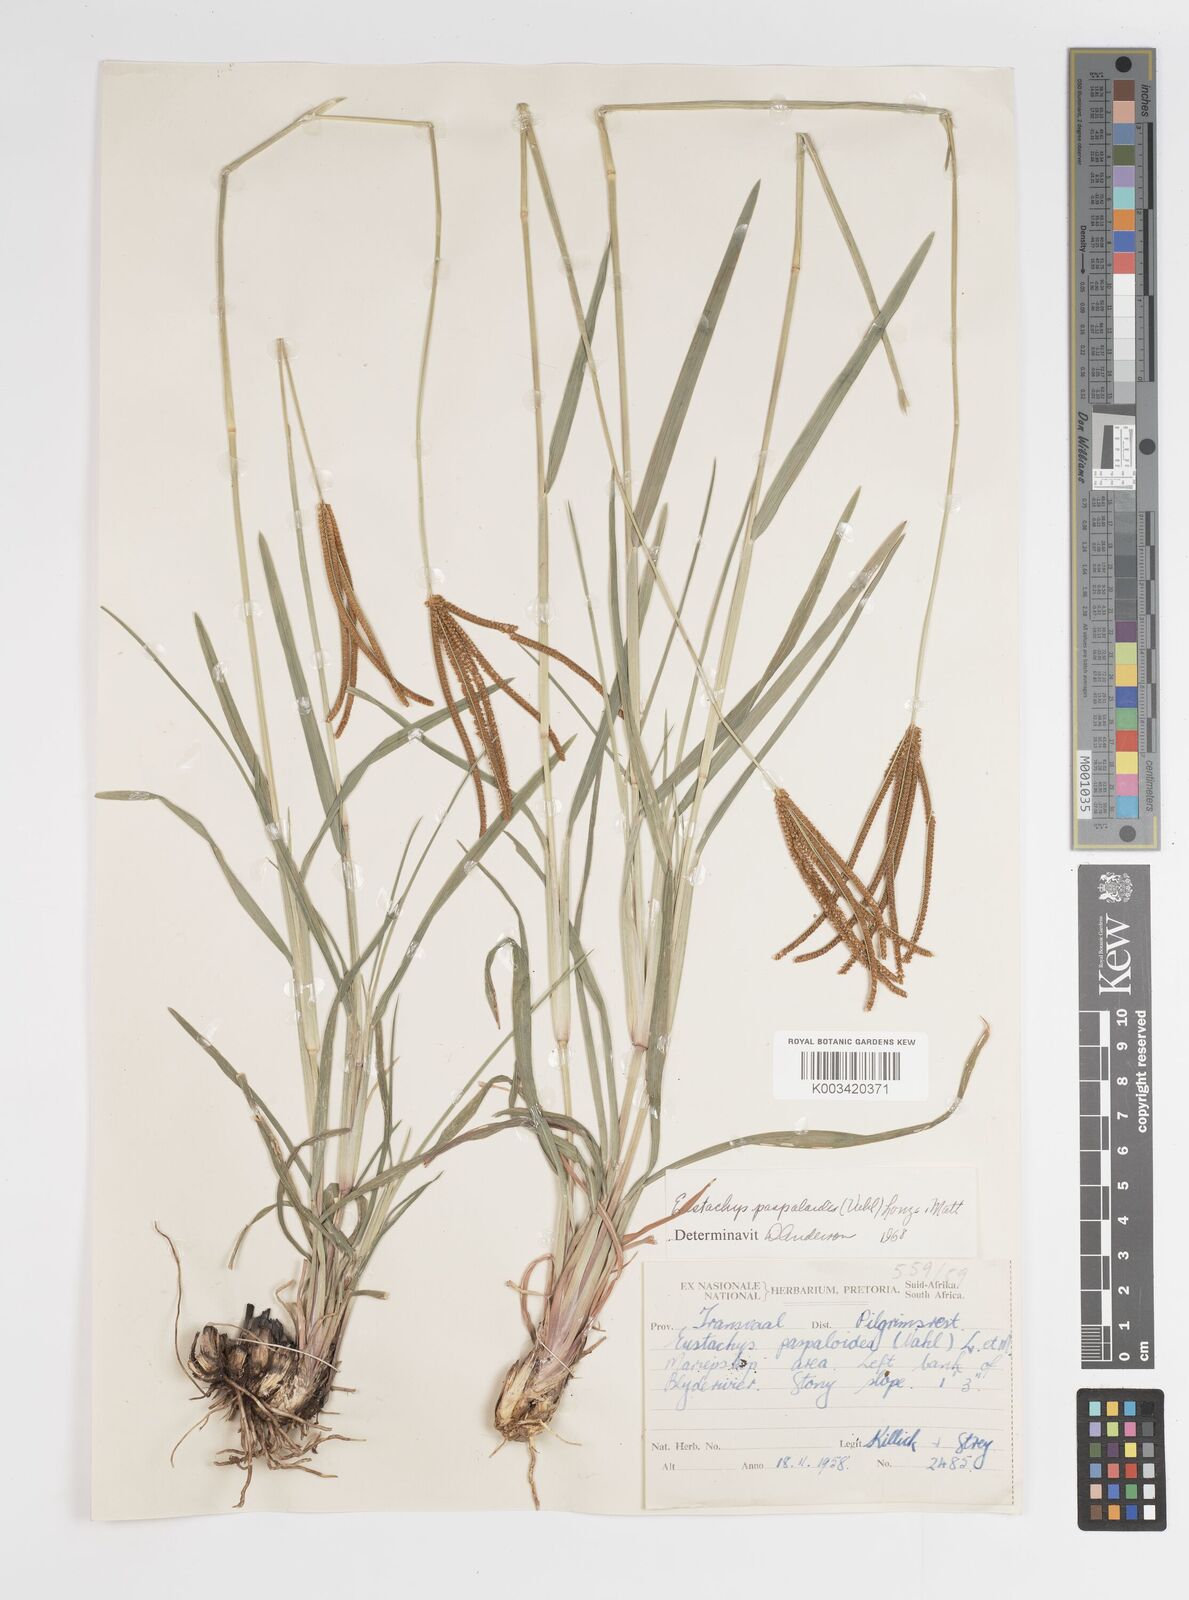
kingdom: Plantae
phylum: Tracheophyta
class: Liliopsida
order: Poales
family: Poaceae
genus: Eustachys
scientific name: Eustachys paspaloides
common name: Caribbean fingergrass
